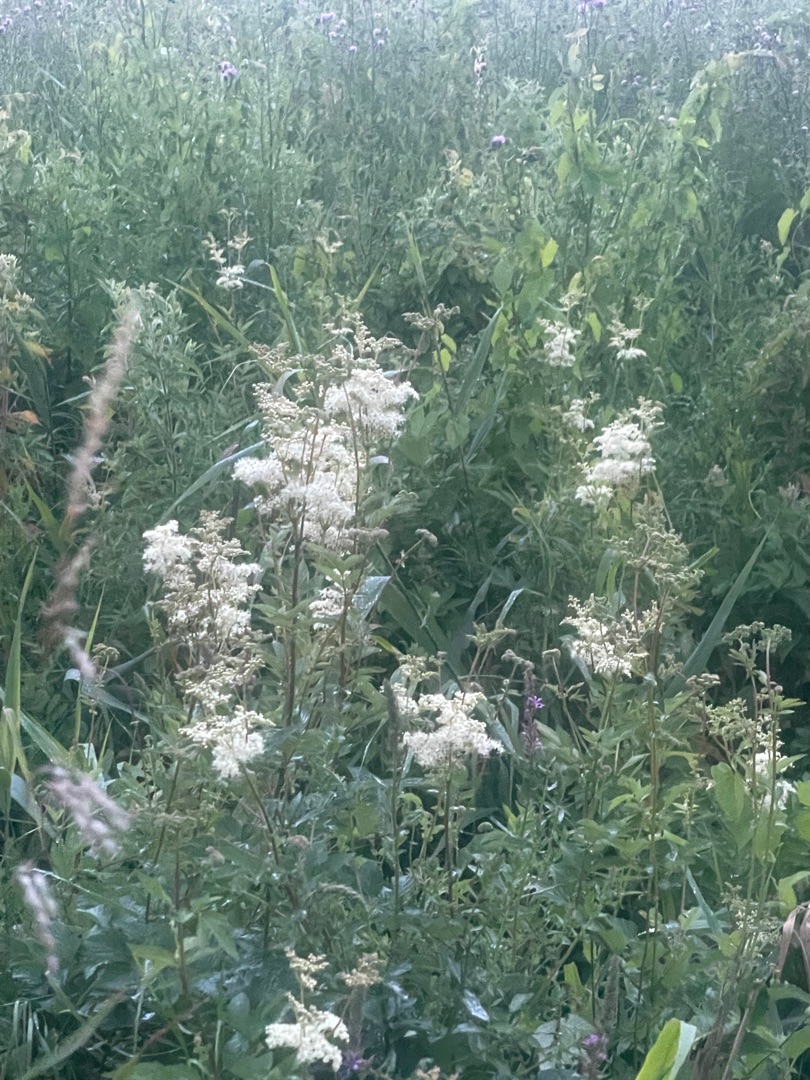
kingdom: Plantae
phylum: Tracheophyta
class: Magnoliopsida
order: Rosales
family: Rosaceae
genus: Filipendula
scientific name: Filipendula ulmaria
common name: Almindelig mjødurt
